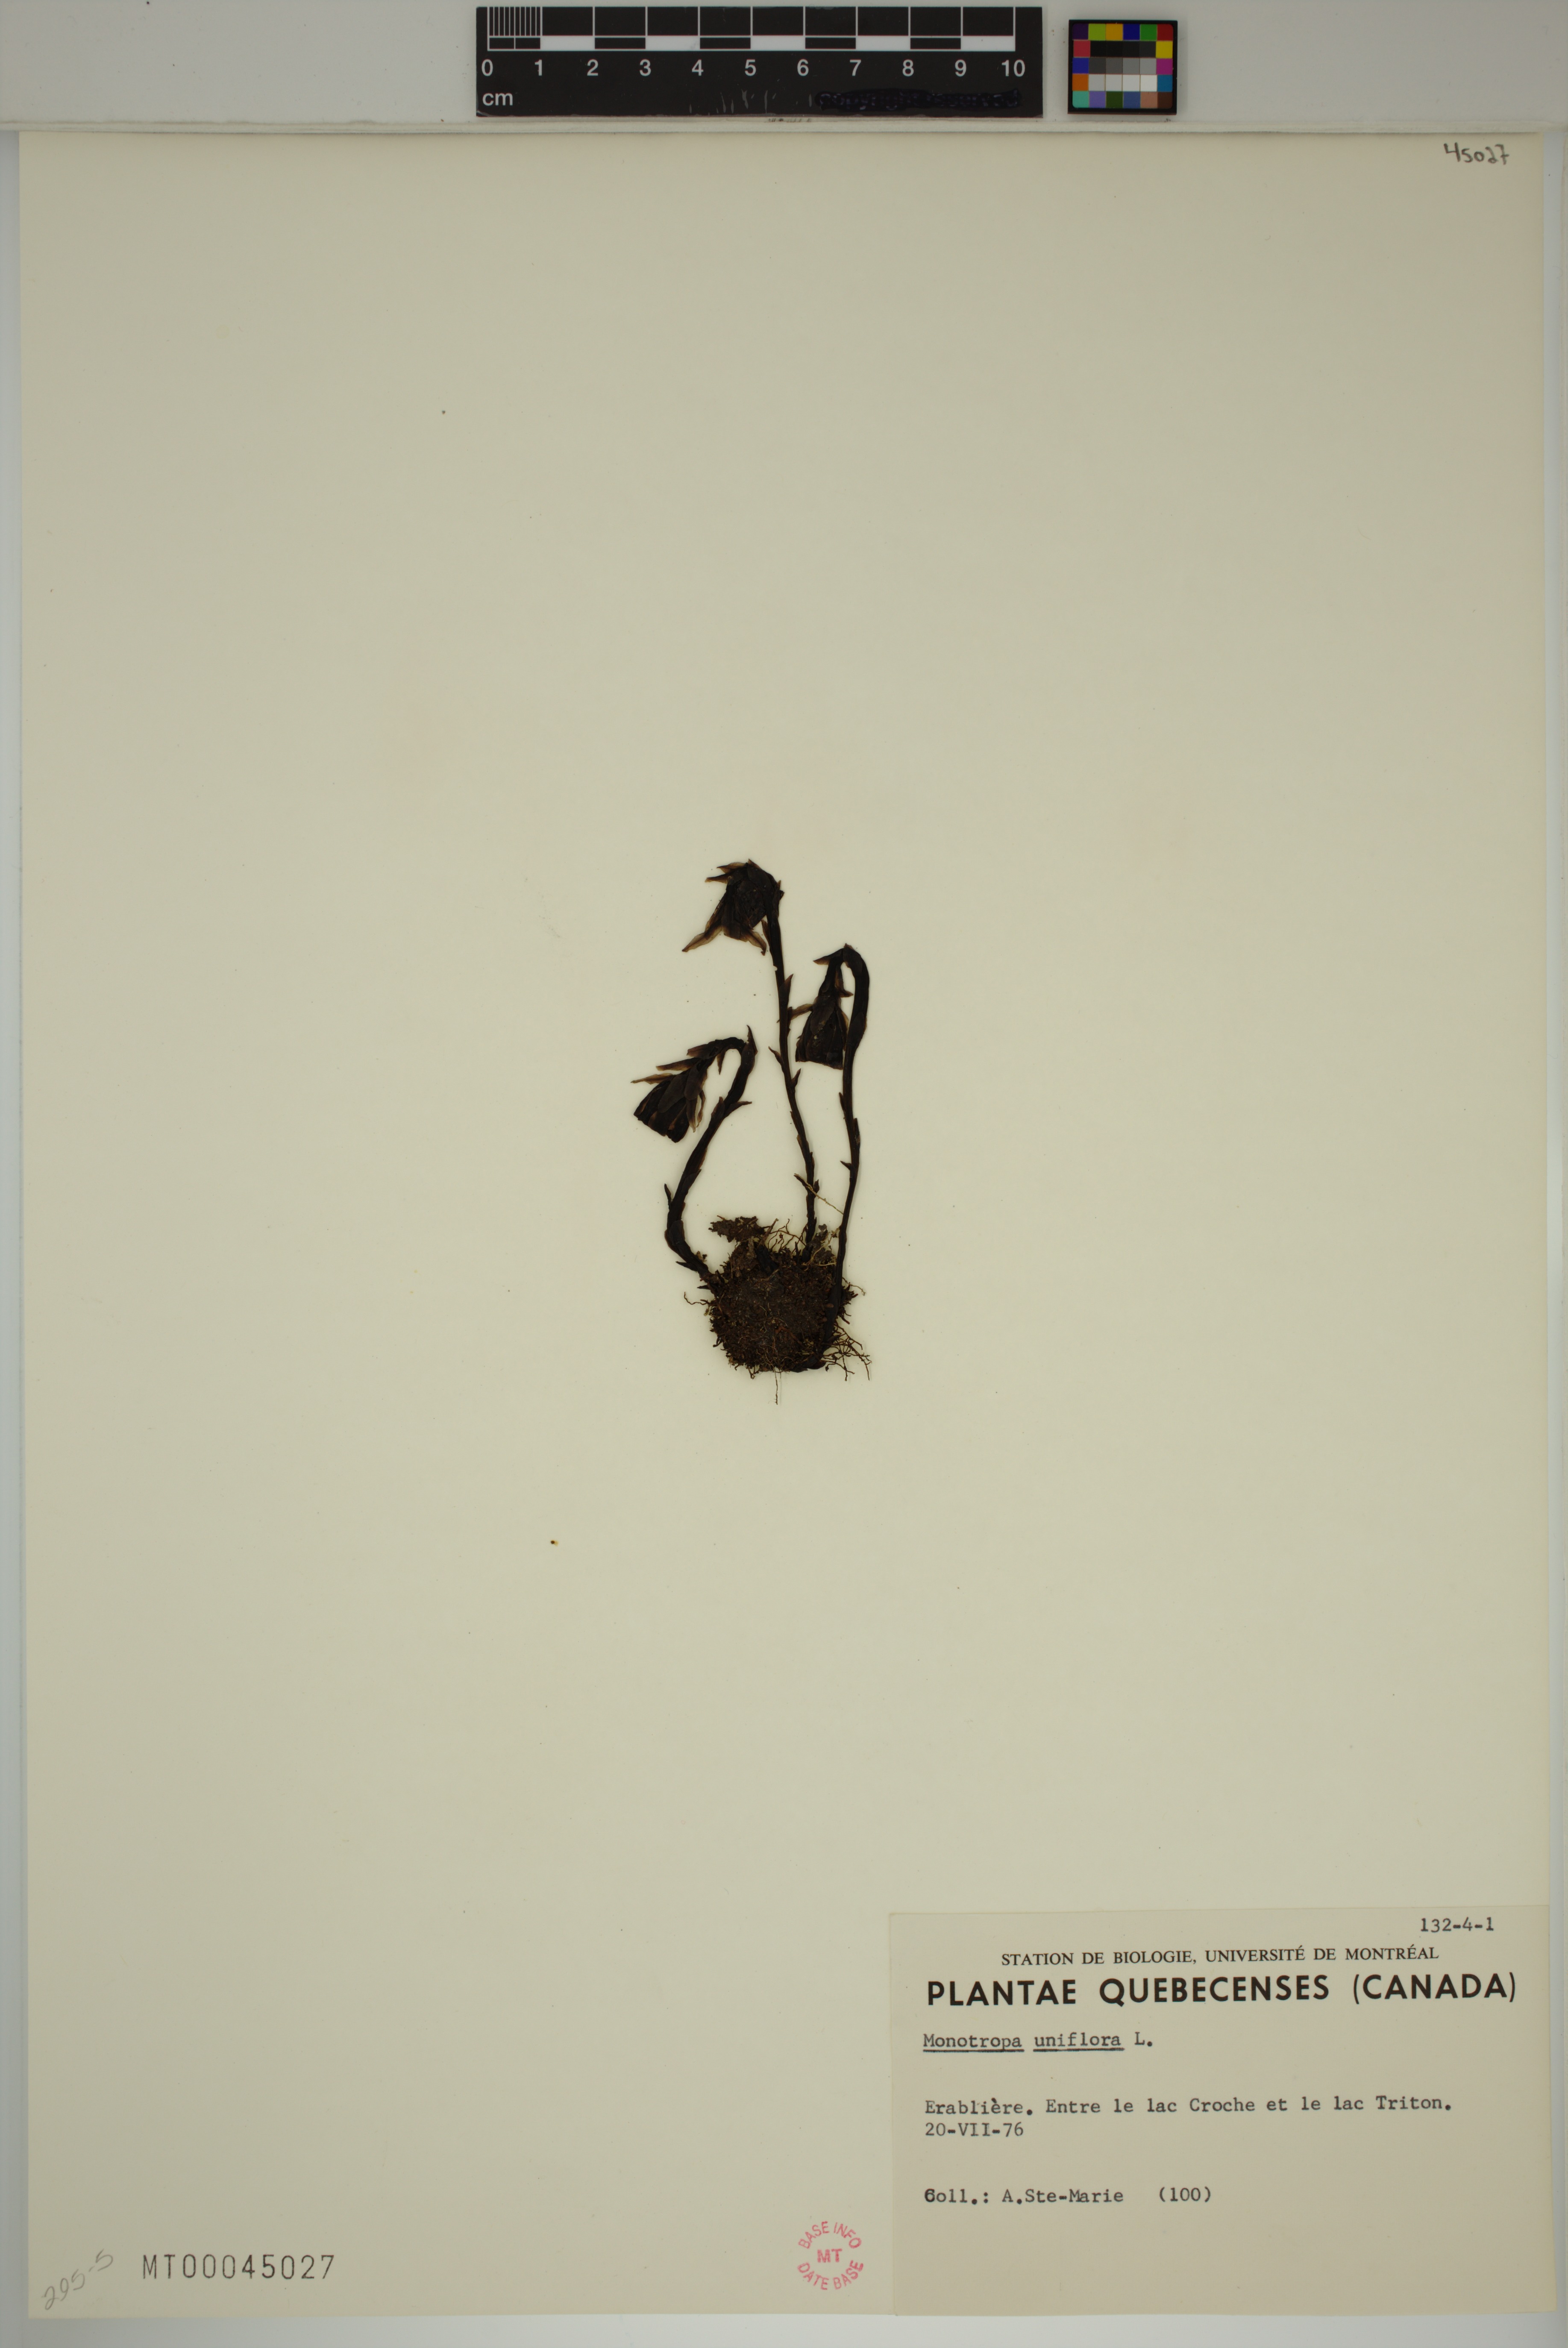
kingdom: Plantae
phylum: Tracheophyta
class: Magnoliopsida
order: Ericales
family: Ericaceae
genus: Monotropa
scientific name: Monotropa uniflora
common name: Convulsion root
